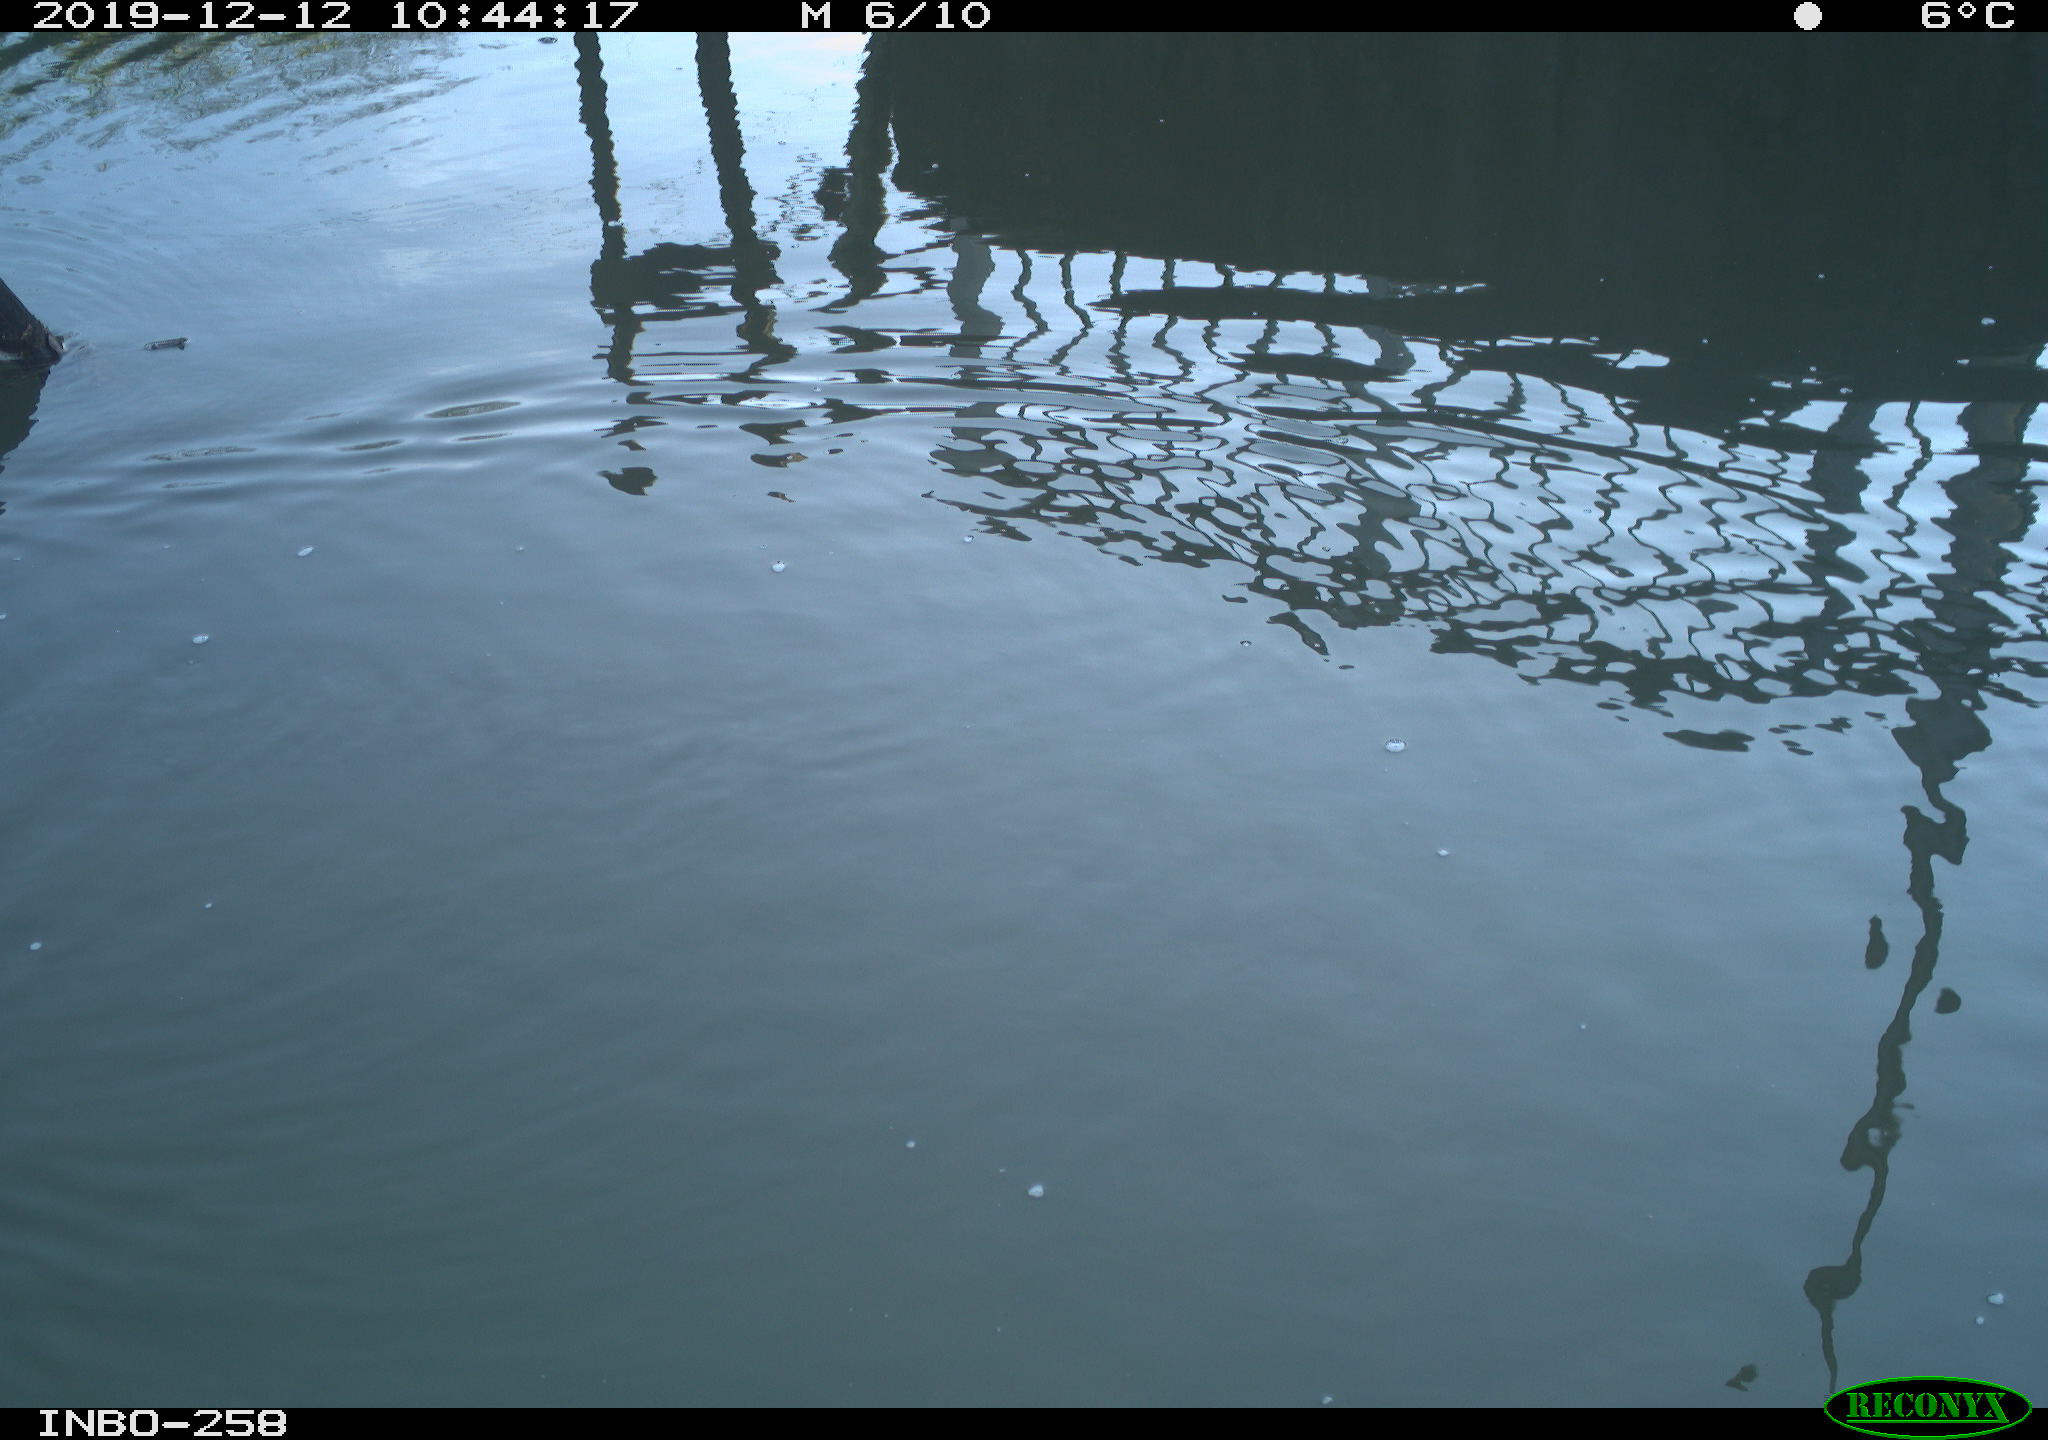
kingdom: Animalia
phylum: Chordata
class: Aves
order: Gruiformes
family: Rallidae
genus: Gallinula
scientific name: Gallinula chloropus
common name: Common moorhen
